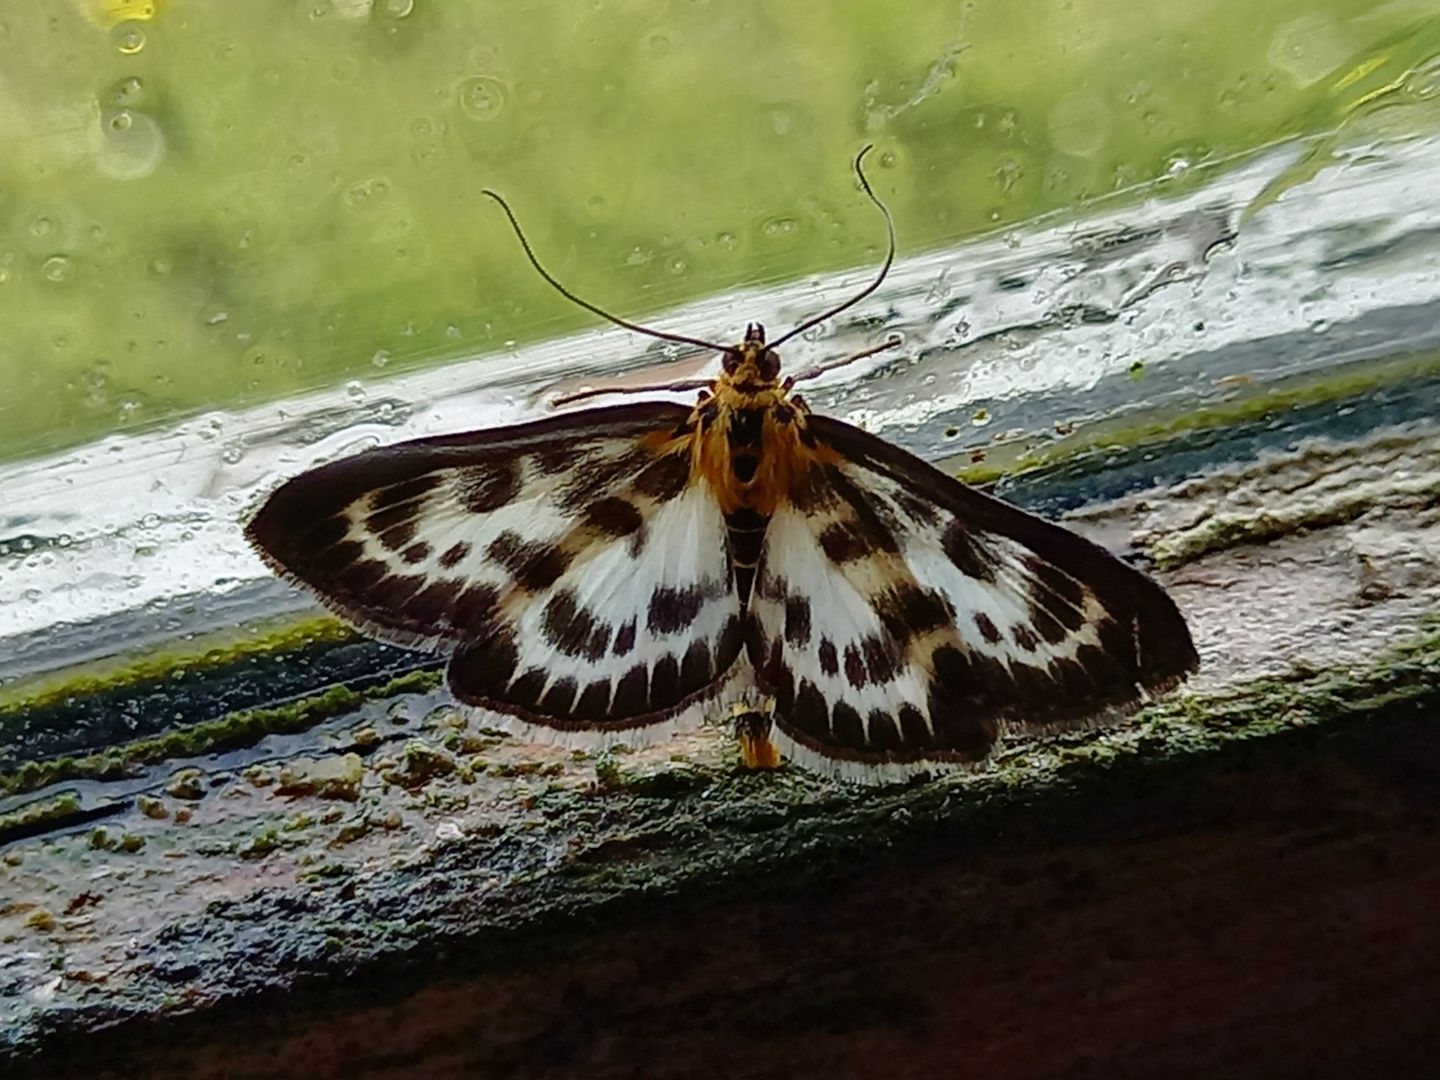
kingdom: Animalia
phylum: Arthropoda
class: Insecta
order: Lepidoptera
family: Crambidae
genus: Anania
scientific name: Anania hortulata
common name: Nældehalvmøl
